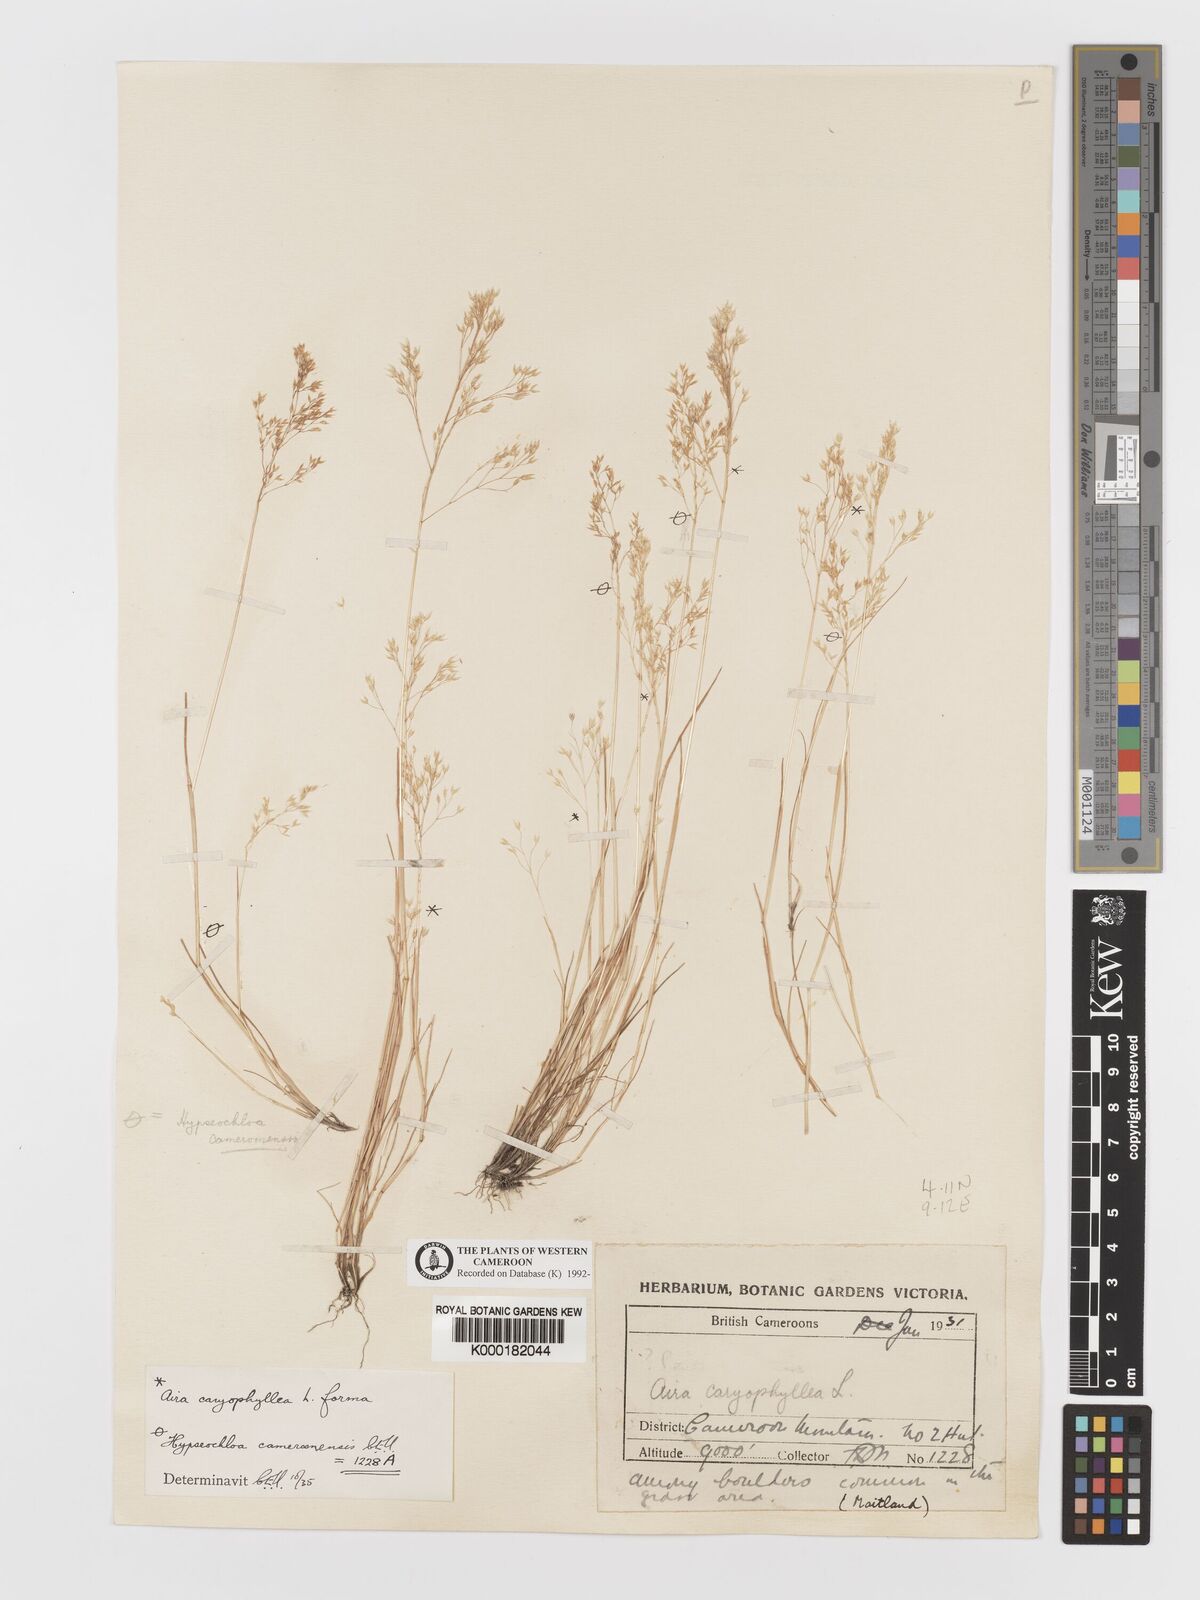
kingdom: Plantae
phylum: Tracheophyta
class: Liliopsida
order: Poales
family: Poaceae
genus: Aira
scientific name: Aira caryophyllea
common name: Silver hairgrass
